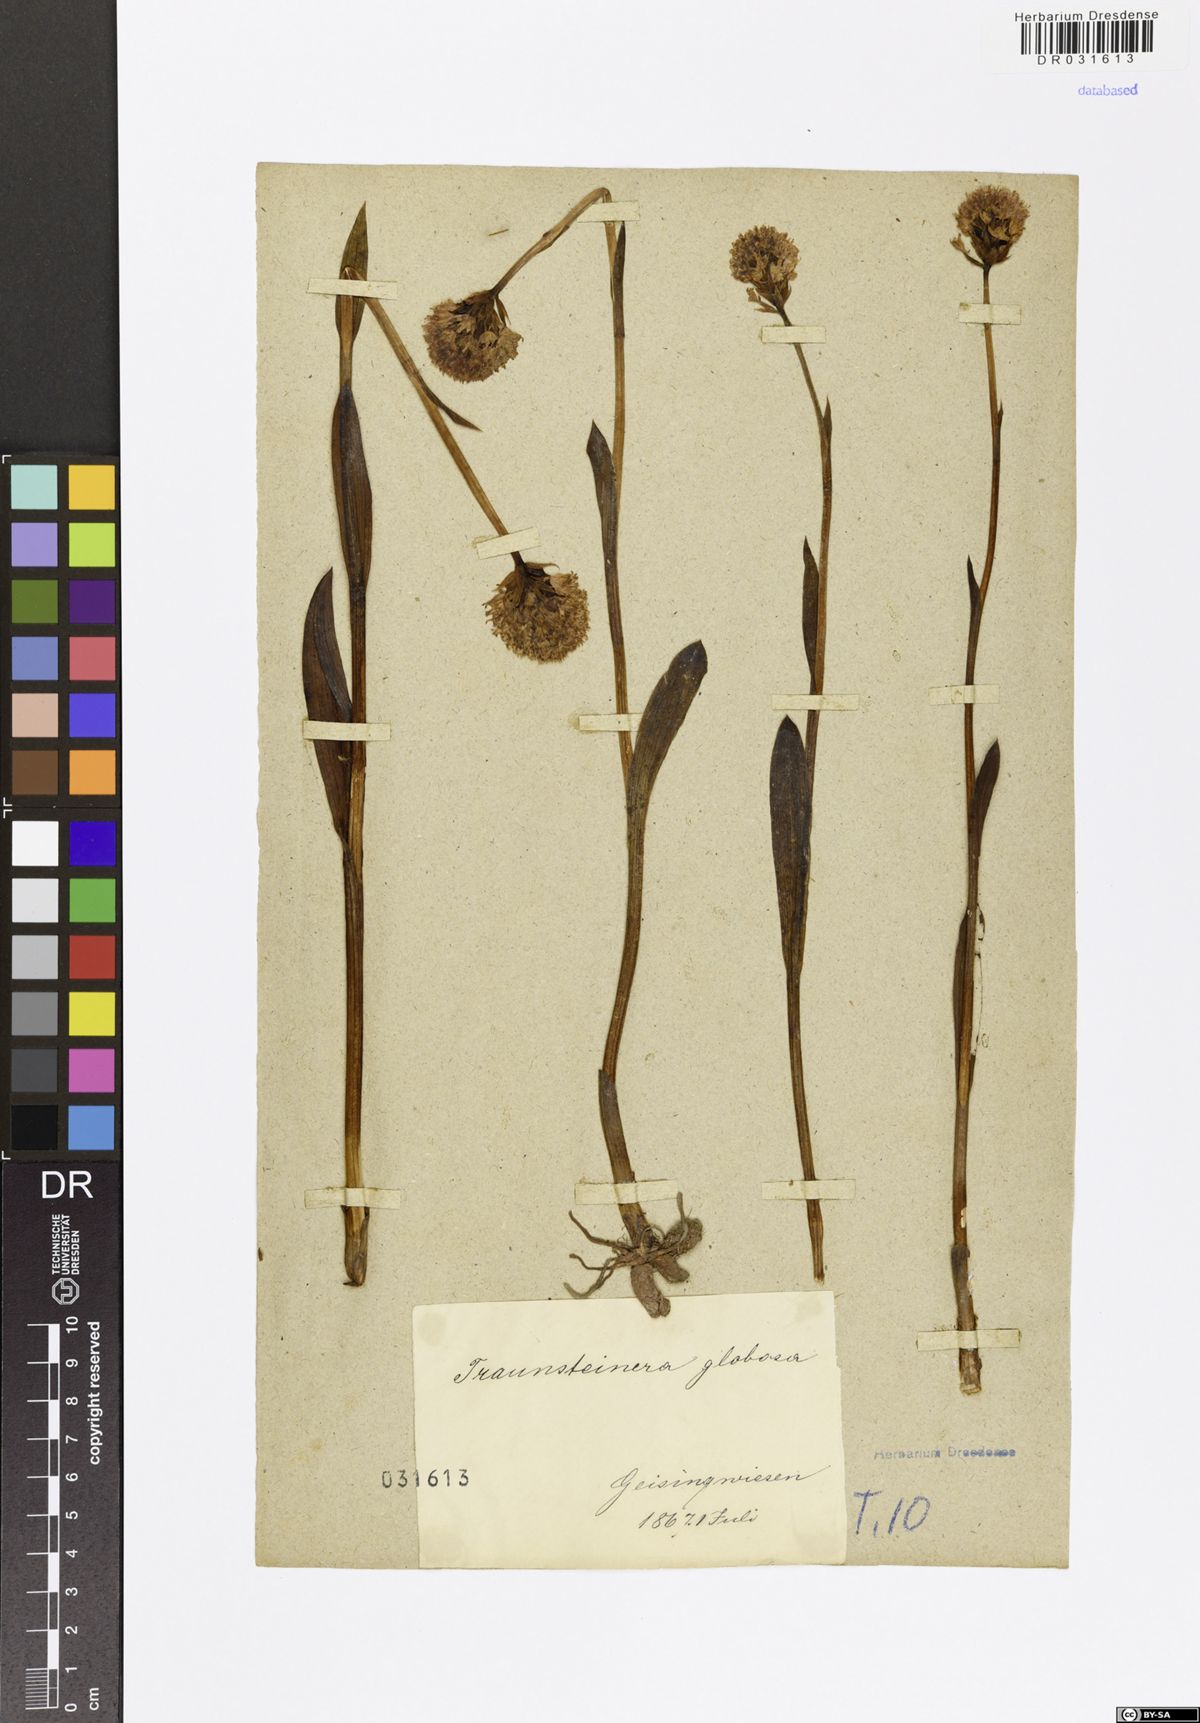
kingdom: Plantae
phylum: Tracheophyta
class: Liliopsida
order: Asparagales
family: Orchidaceae
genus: Traunsteinera
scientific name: Traunsteinera globosa
